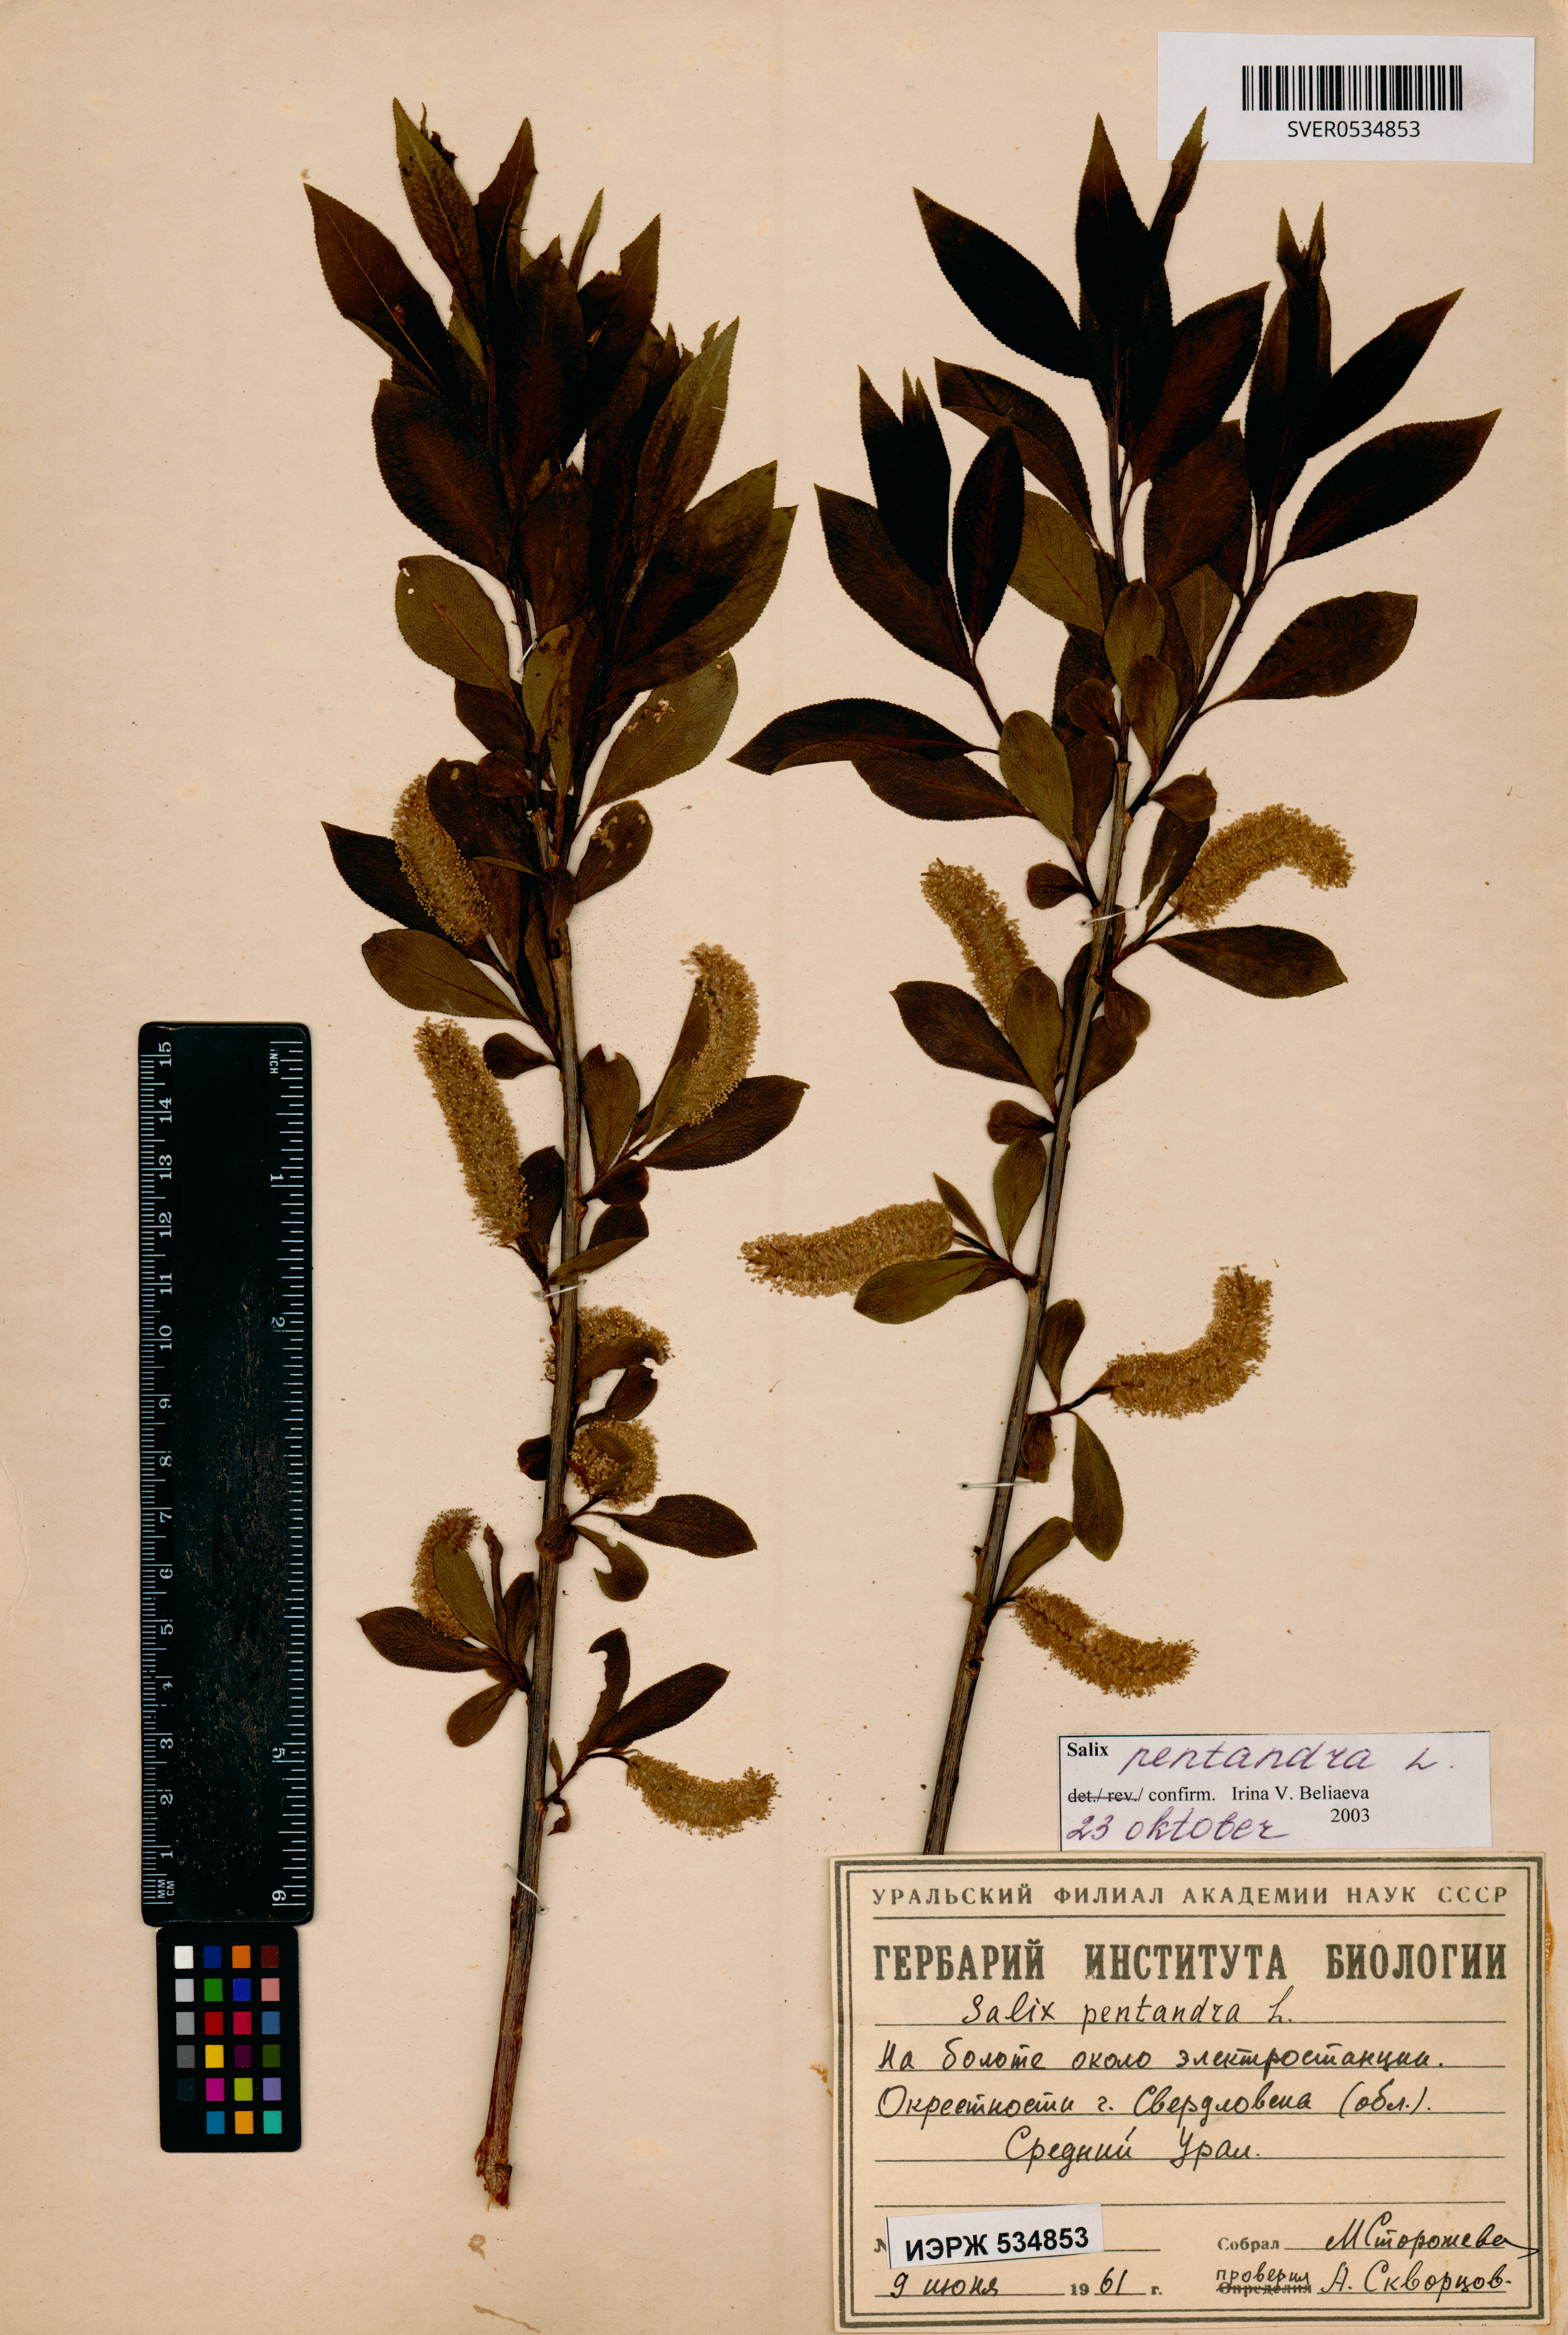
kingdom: Plantae
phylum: Tracheophyta
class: Magnoliopsida
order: Malpighiales
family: Salicaceae
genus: Salix
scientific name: Salix pentandra
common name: Bay willow
